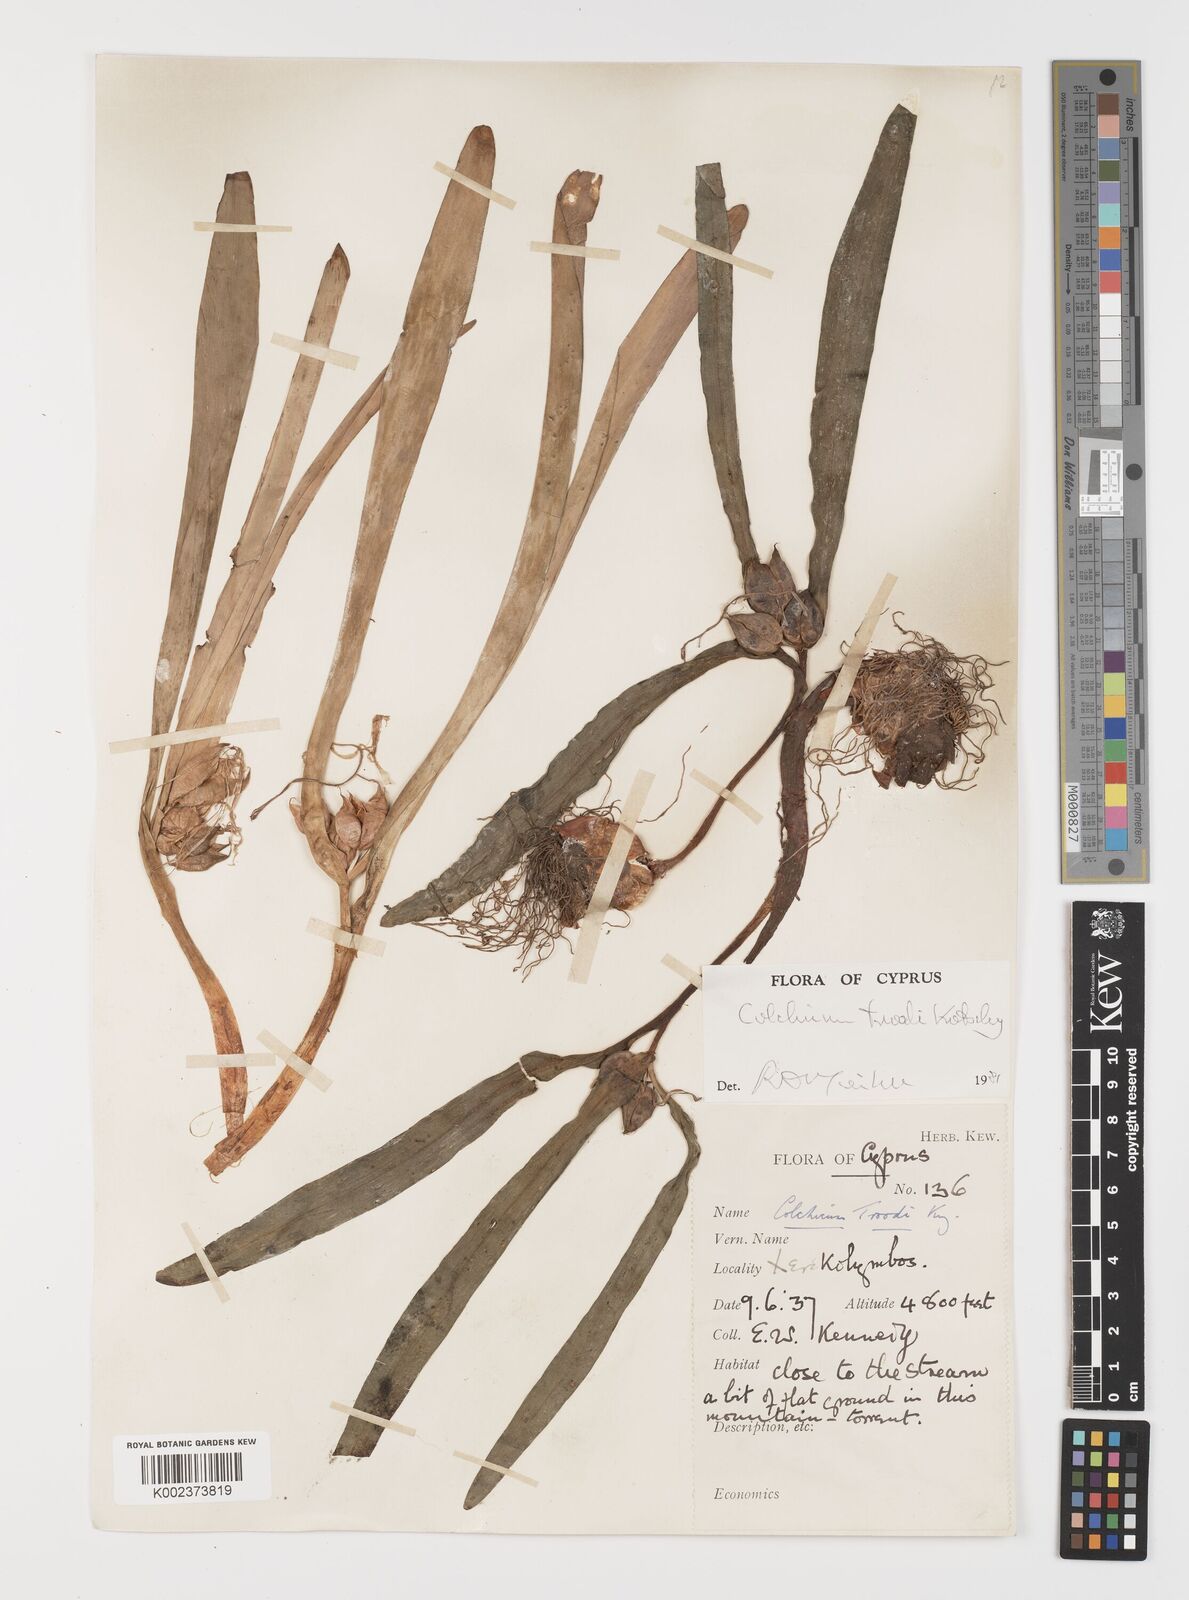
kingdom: Plantae
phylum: Tracheophyta
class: Liliopsida
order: Liliales
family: Colchicaceae
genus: Colchicum
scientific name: Colchicum troodi
